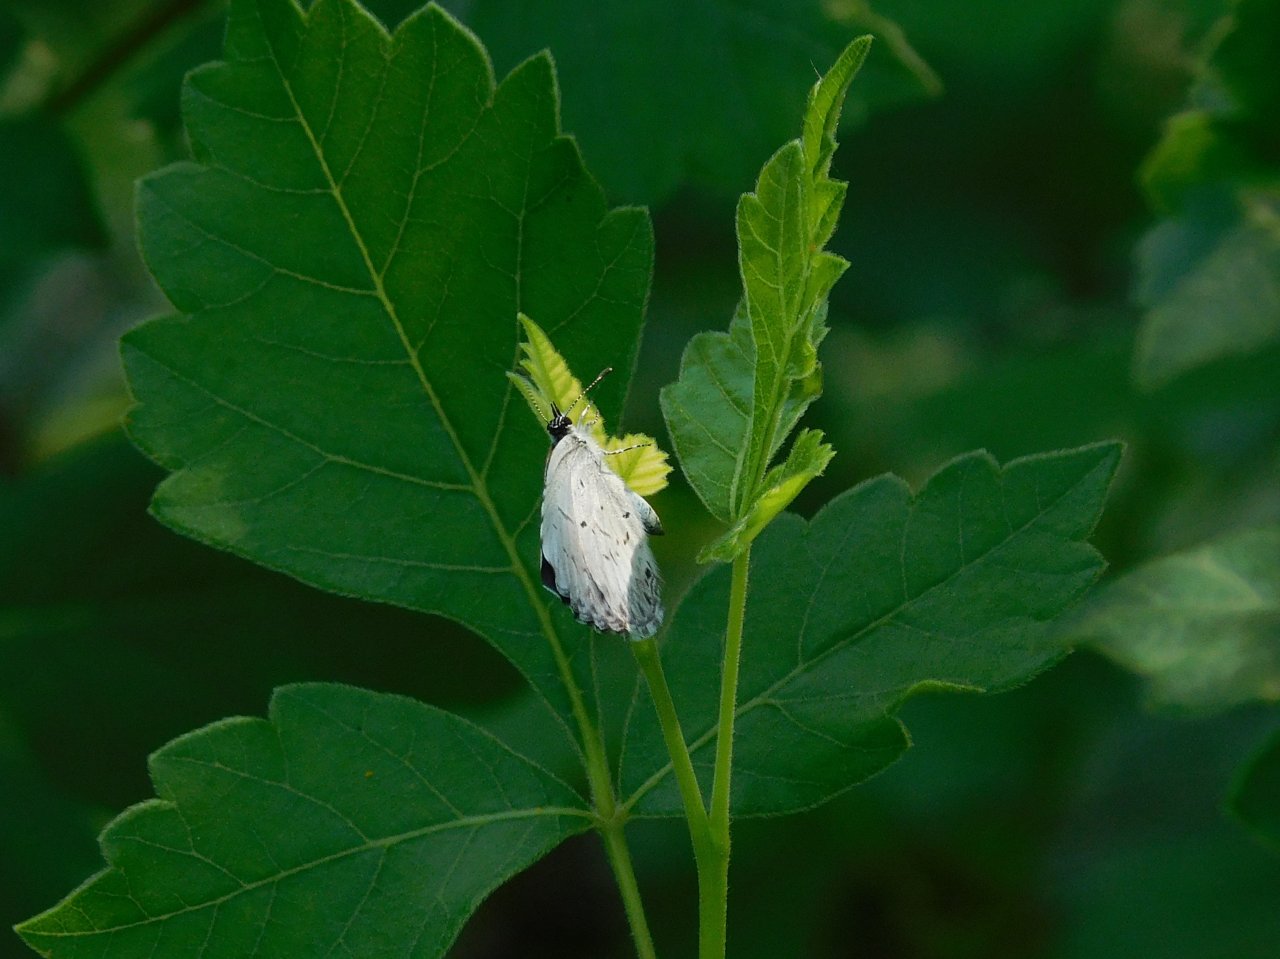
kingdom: Animalia
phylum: Arthropoda
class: Insecta
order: Lepidoptera
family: Lycaenidae
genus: Celastrina
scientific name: Celastrina lucia
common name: Northern Spring Azure
